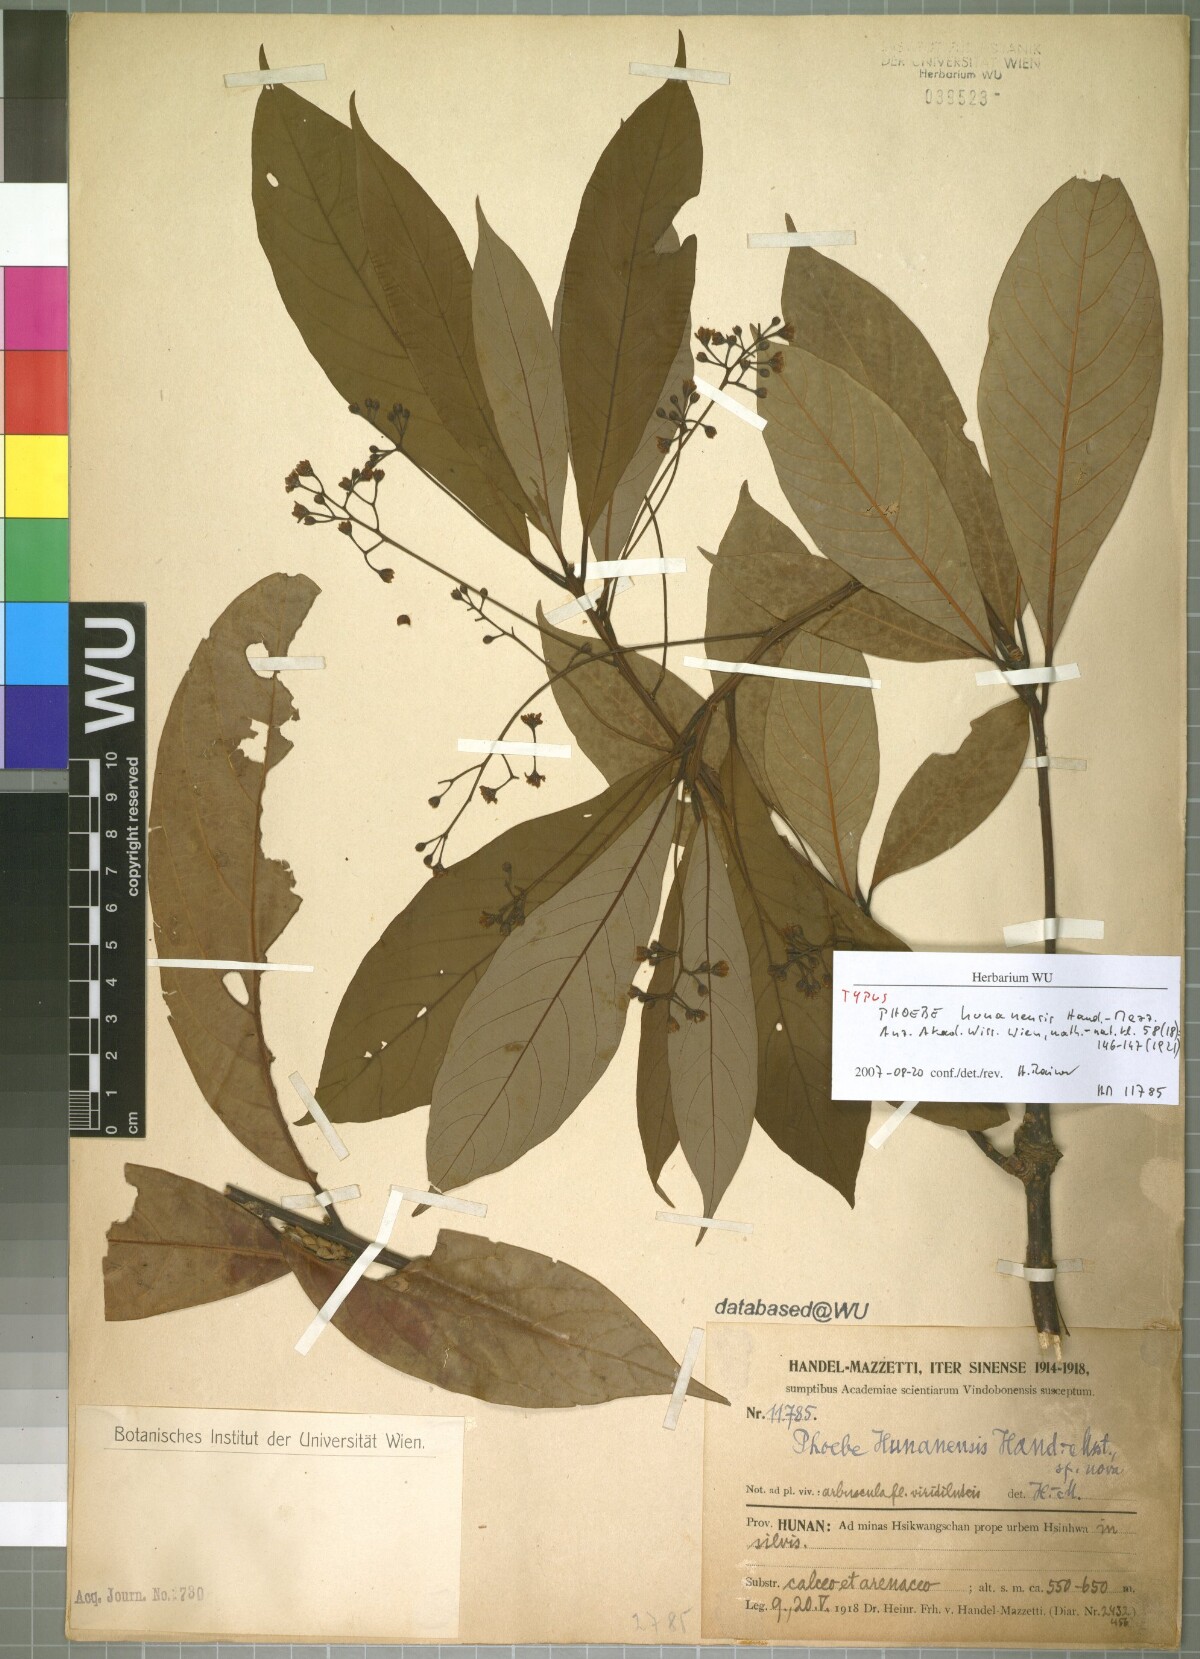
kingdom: Plantae
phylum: Tracheophyta
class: Magnoliopsida
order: Laurales
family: Lauraceae
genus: Phoebe
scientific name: Phoebe hunanensis
